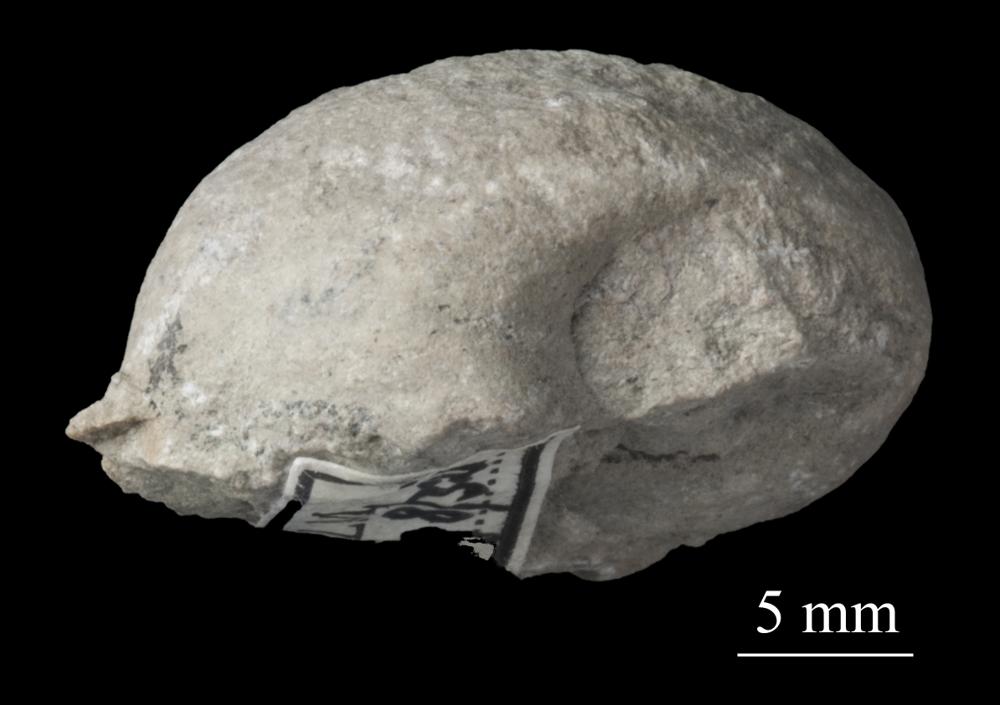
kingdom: Animalia
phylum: Mollusca
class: Gastropoda
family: Bellerophontidae
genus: Bellerophon
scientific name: Bellerophon
